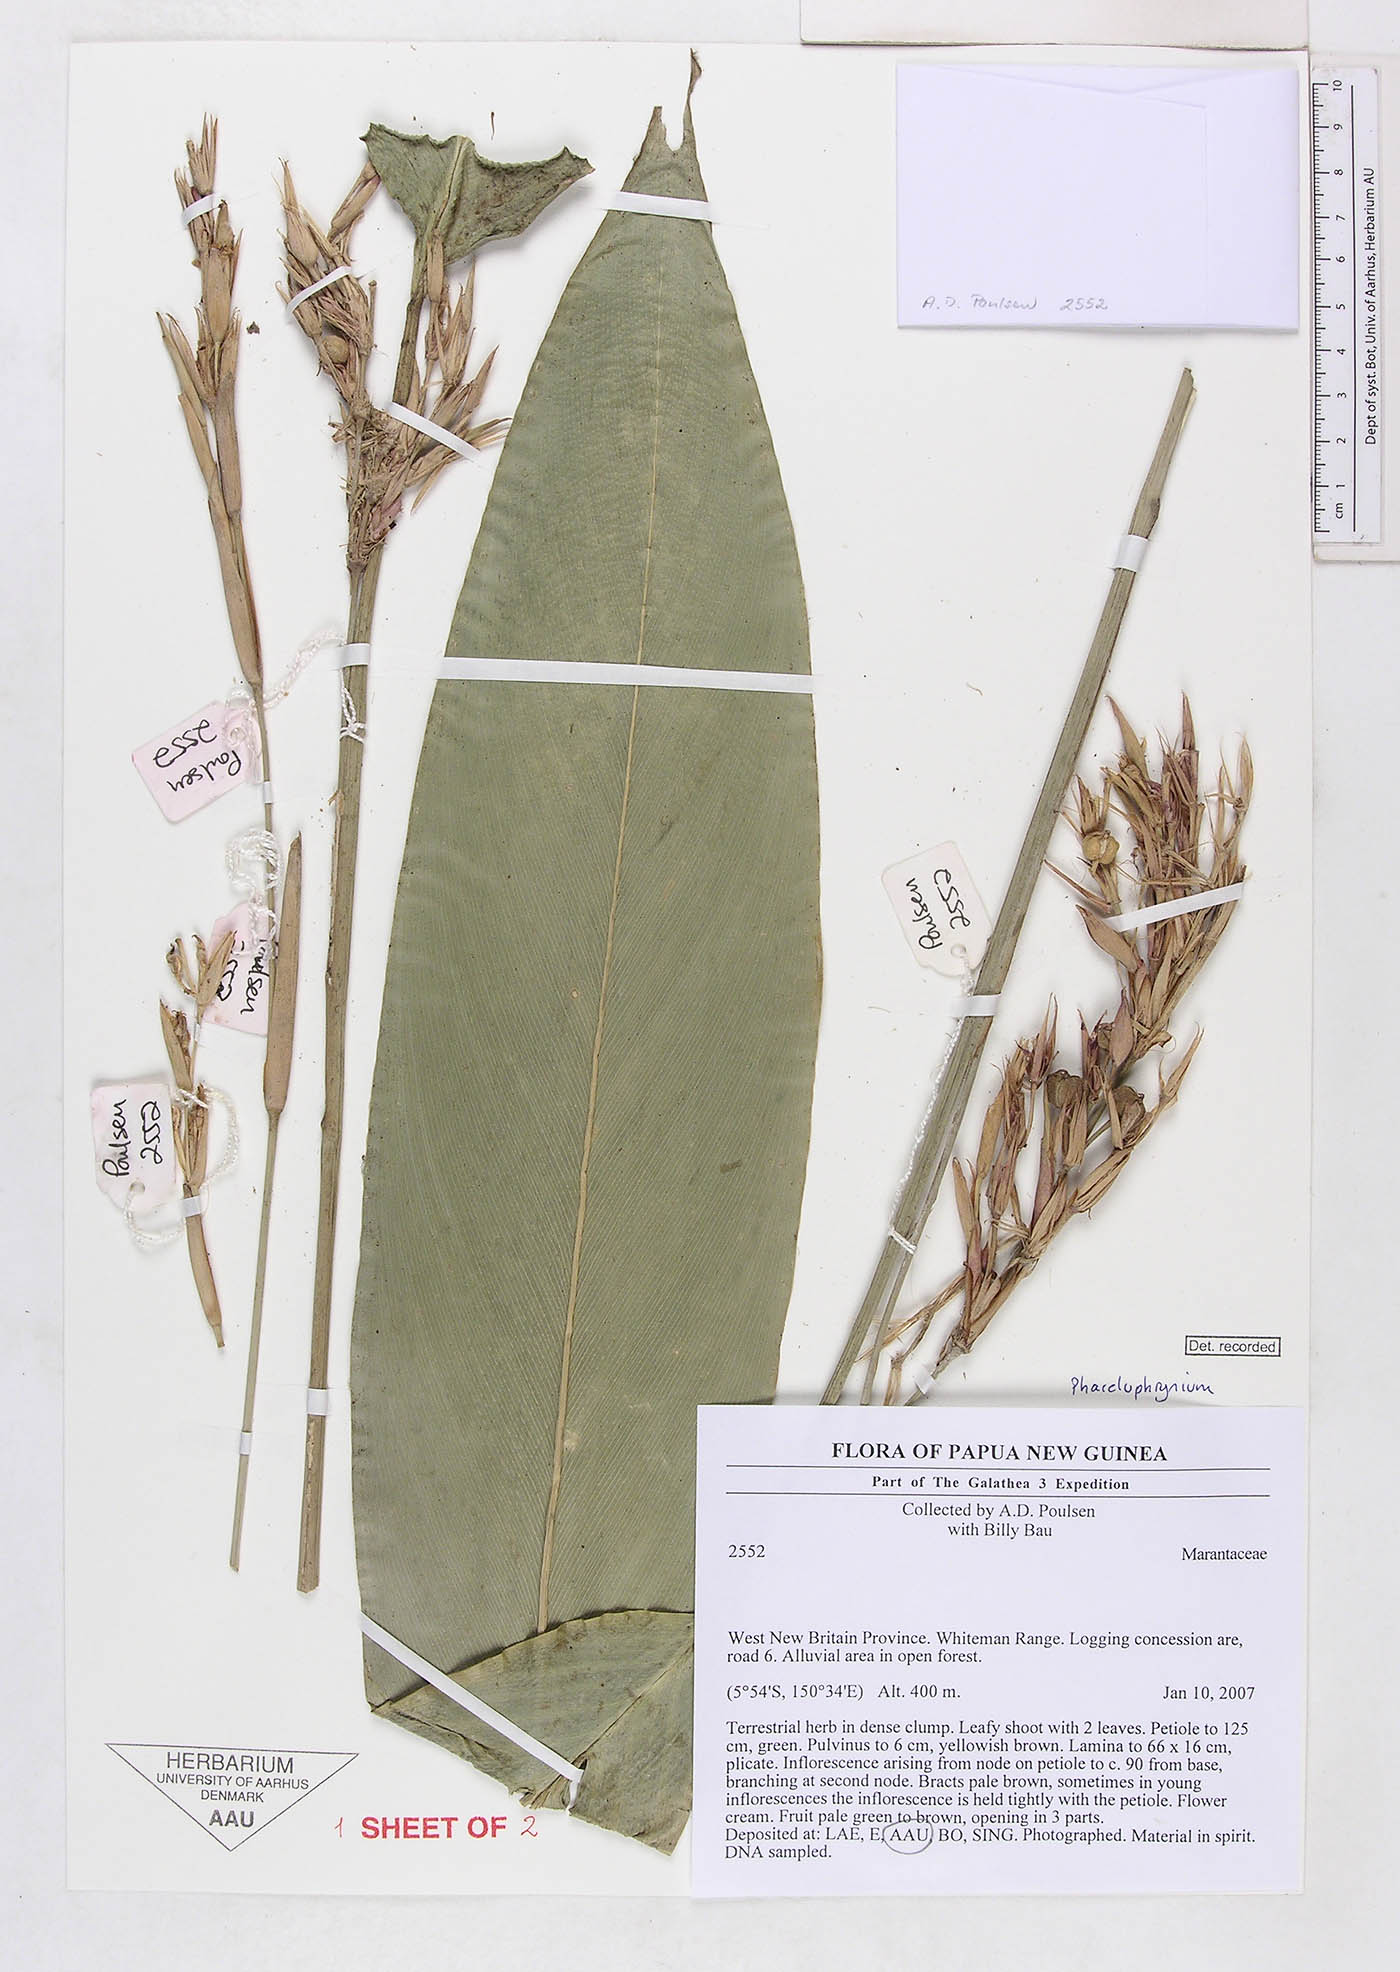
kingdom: Plantae
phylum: Tracheophyta
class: Liliopsida
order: Zingiberales
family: Marantaceae
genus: Phrynium
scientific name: Phrynium whitei
